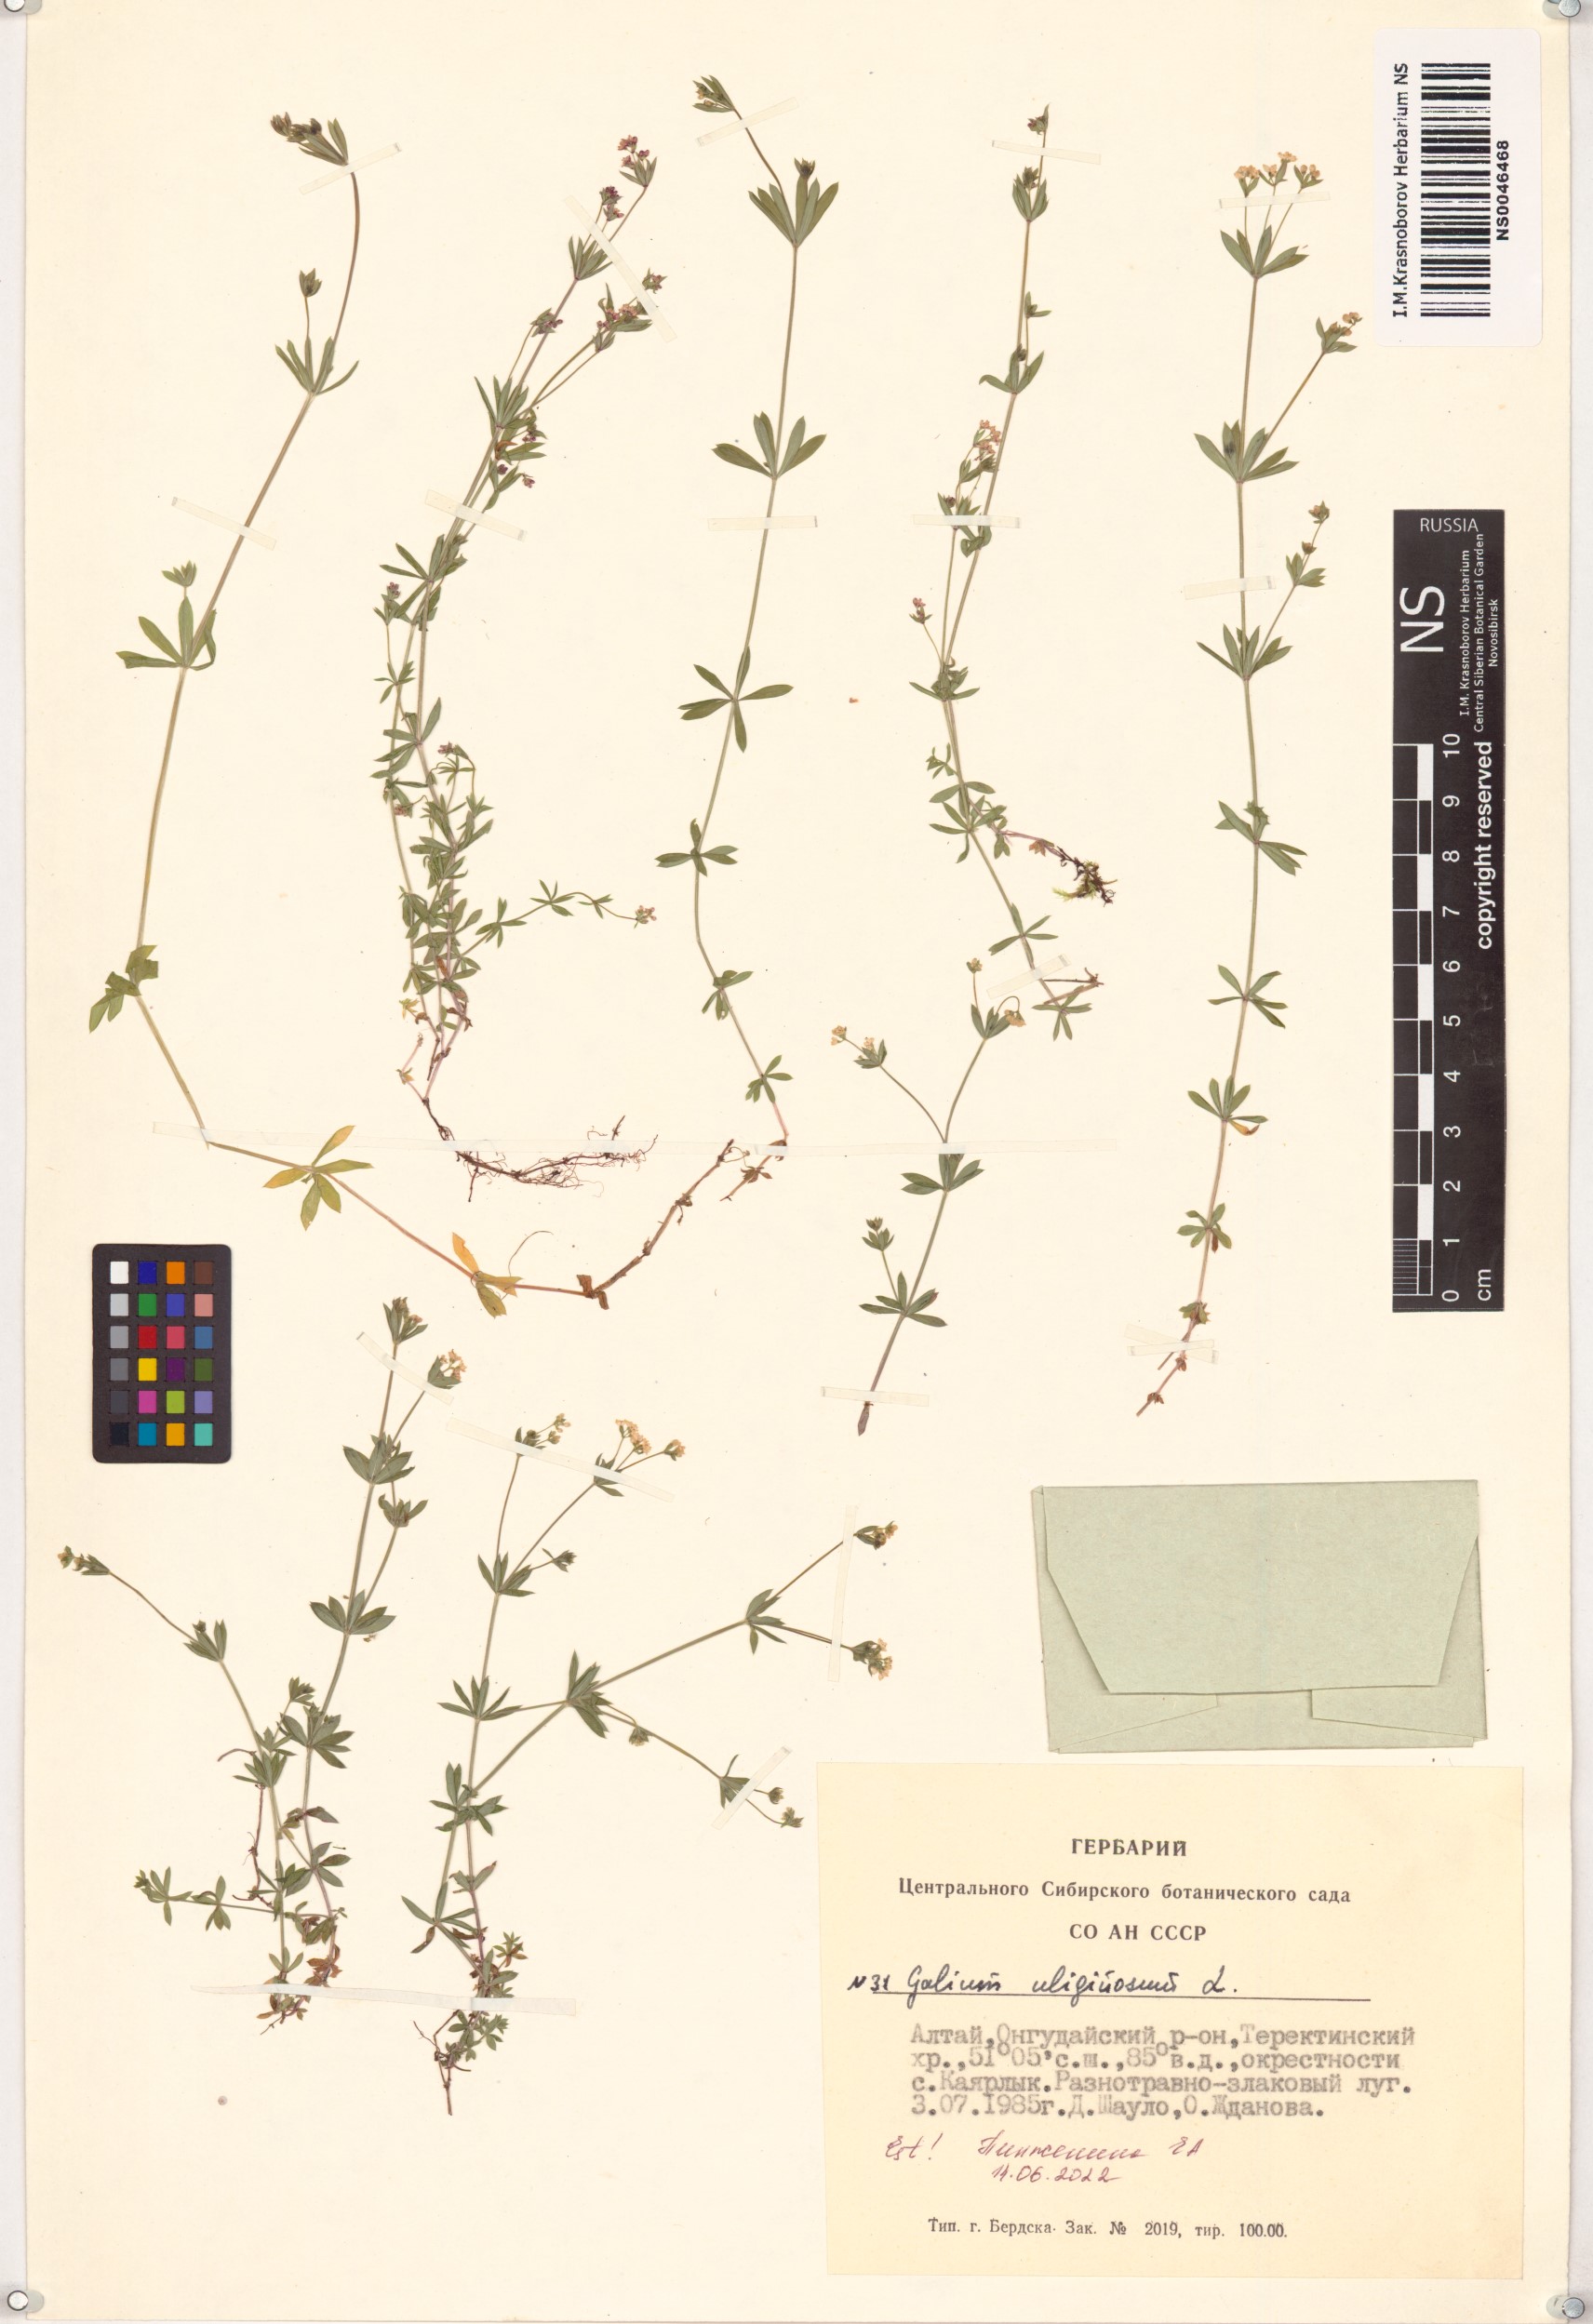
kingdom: Plantae
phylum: Tracheophyta
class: Magnoliopsida
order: Gentianales
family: Rubiaceae
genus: Galium
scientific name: Galium uliginosum
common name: Fen bedstraw
